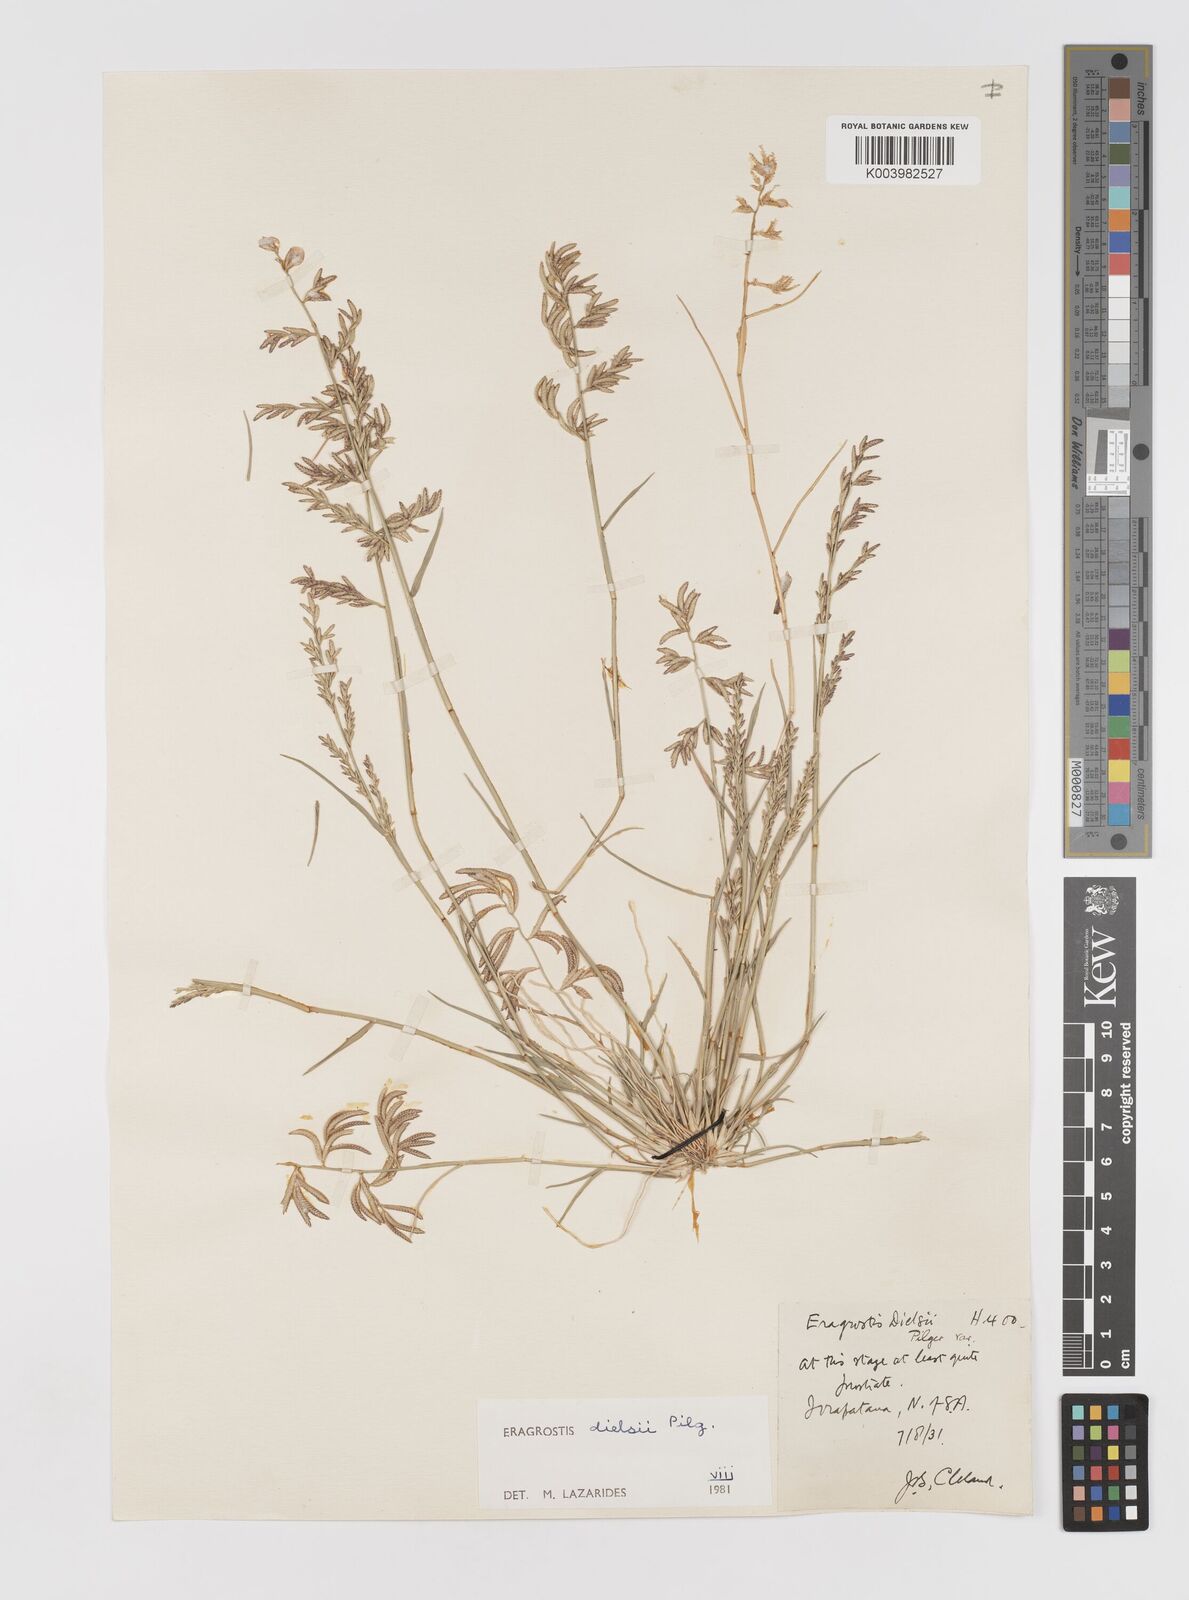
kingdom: Plantae
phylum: Tracheophyta
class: Liliopsida
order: Poales
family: Poaceae
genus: Eragrostis
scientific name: Eragrostis dielsii
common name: Lovegrass
